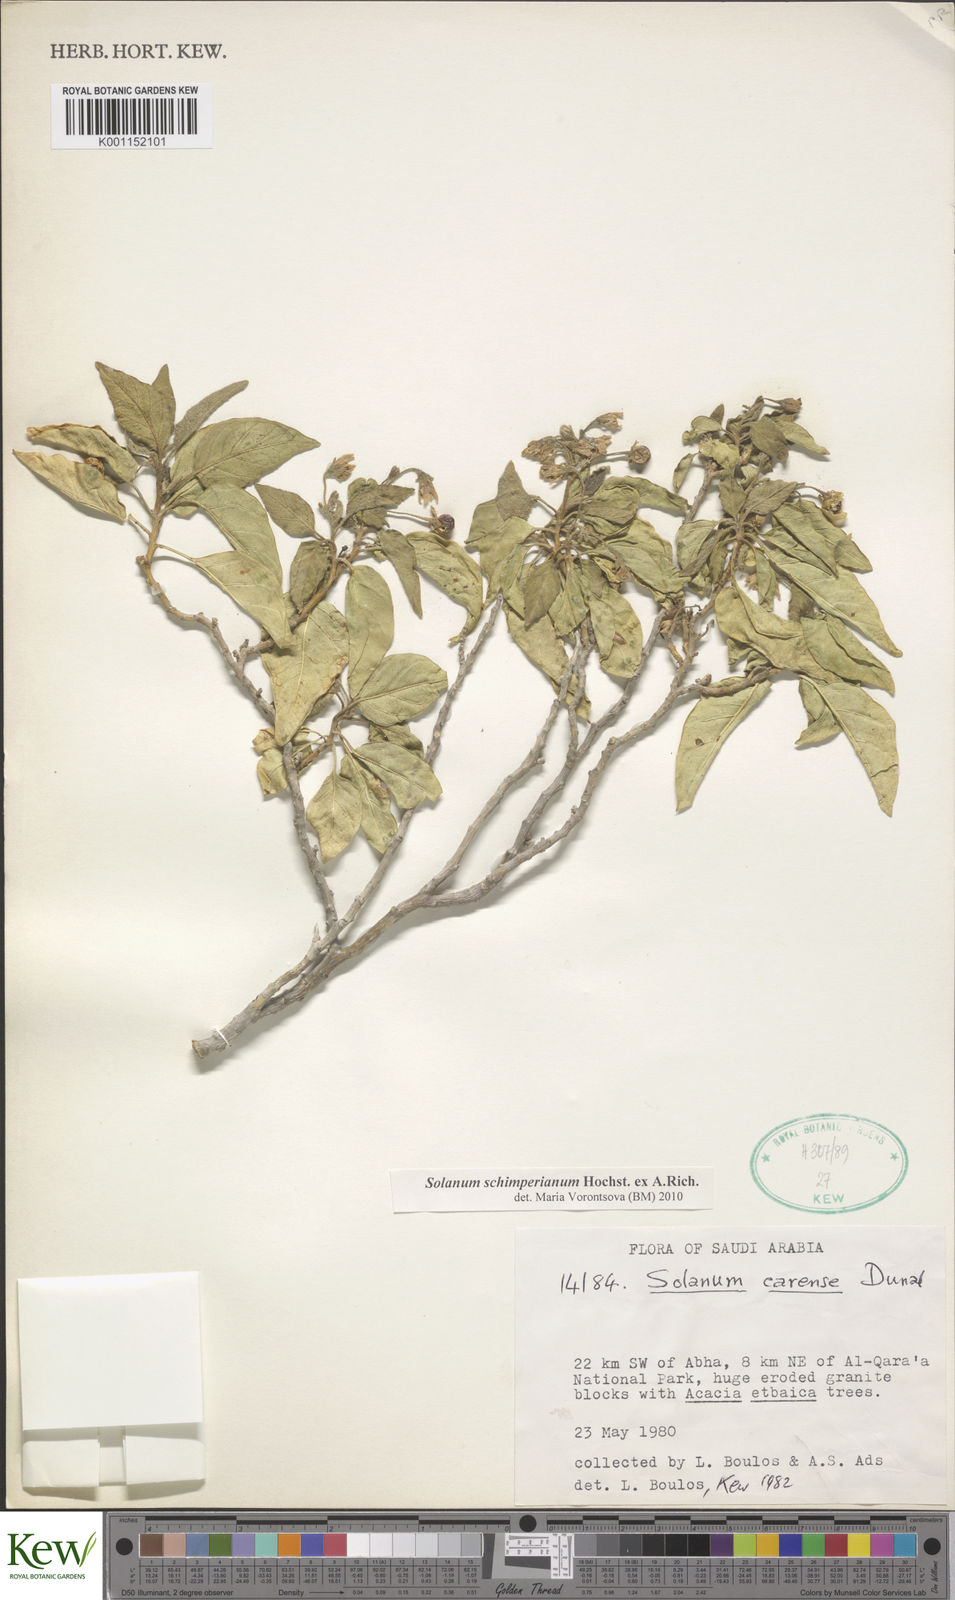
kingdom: Plantae
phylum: Tracheophyta
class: Magnoliopsida
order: Solanales
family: Solanaceae
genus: Solanum
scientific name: Solanum schimperianum
